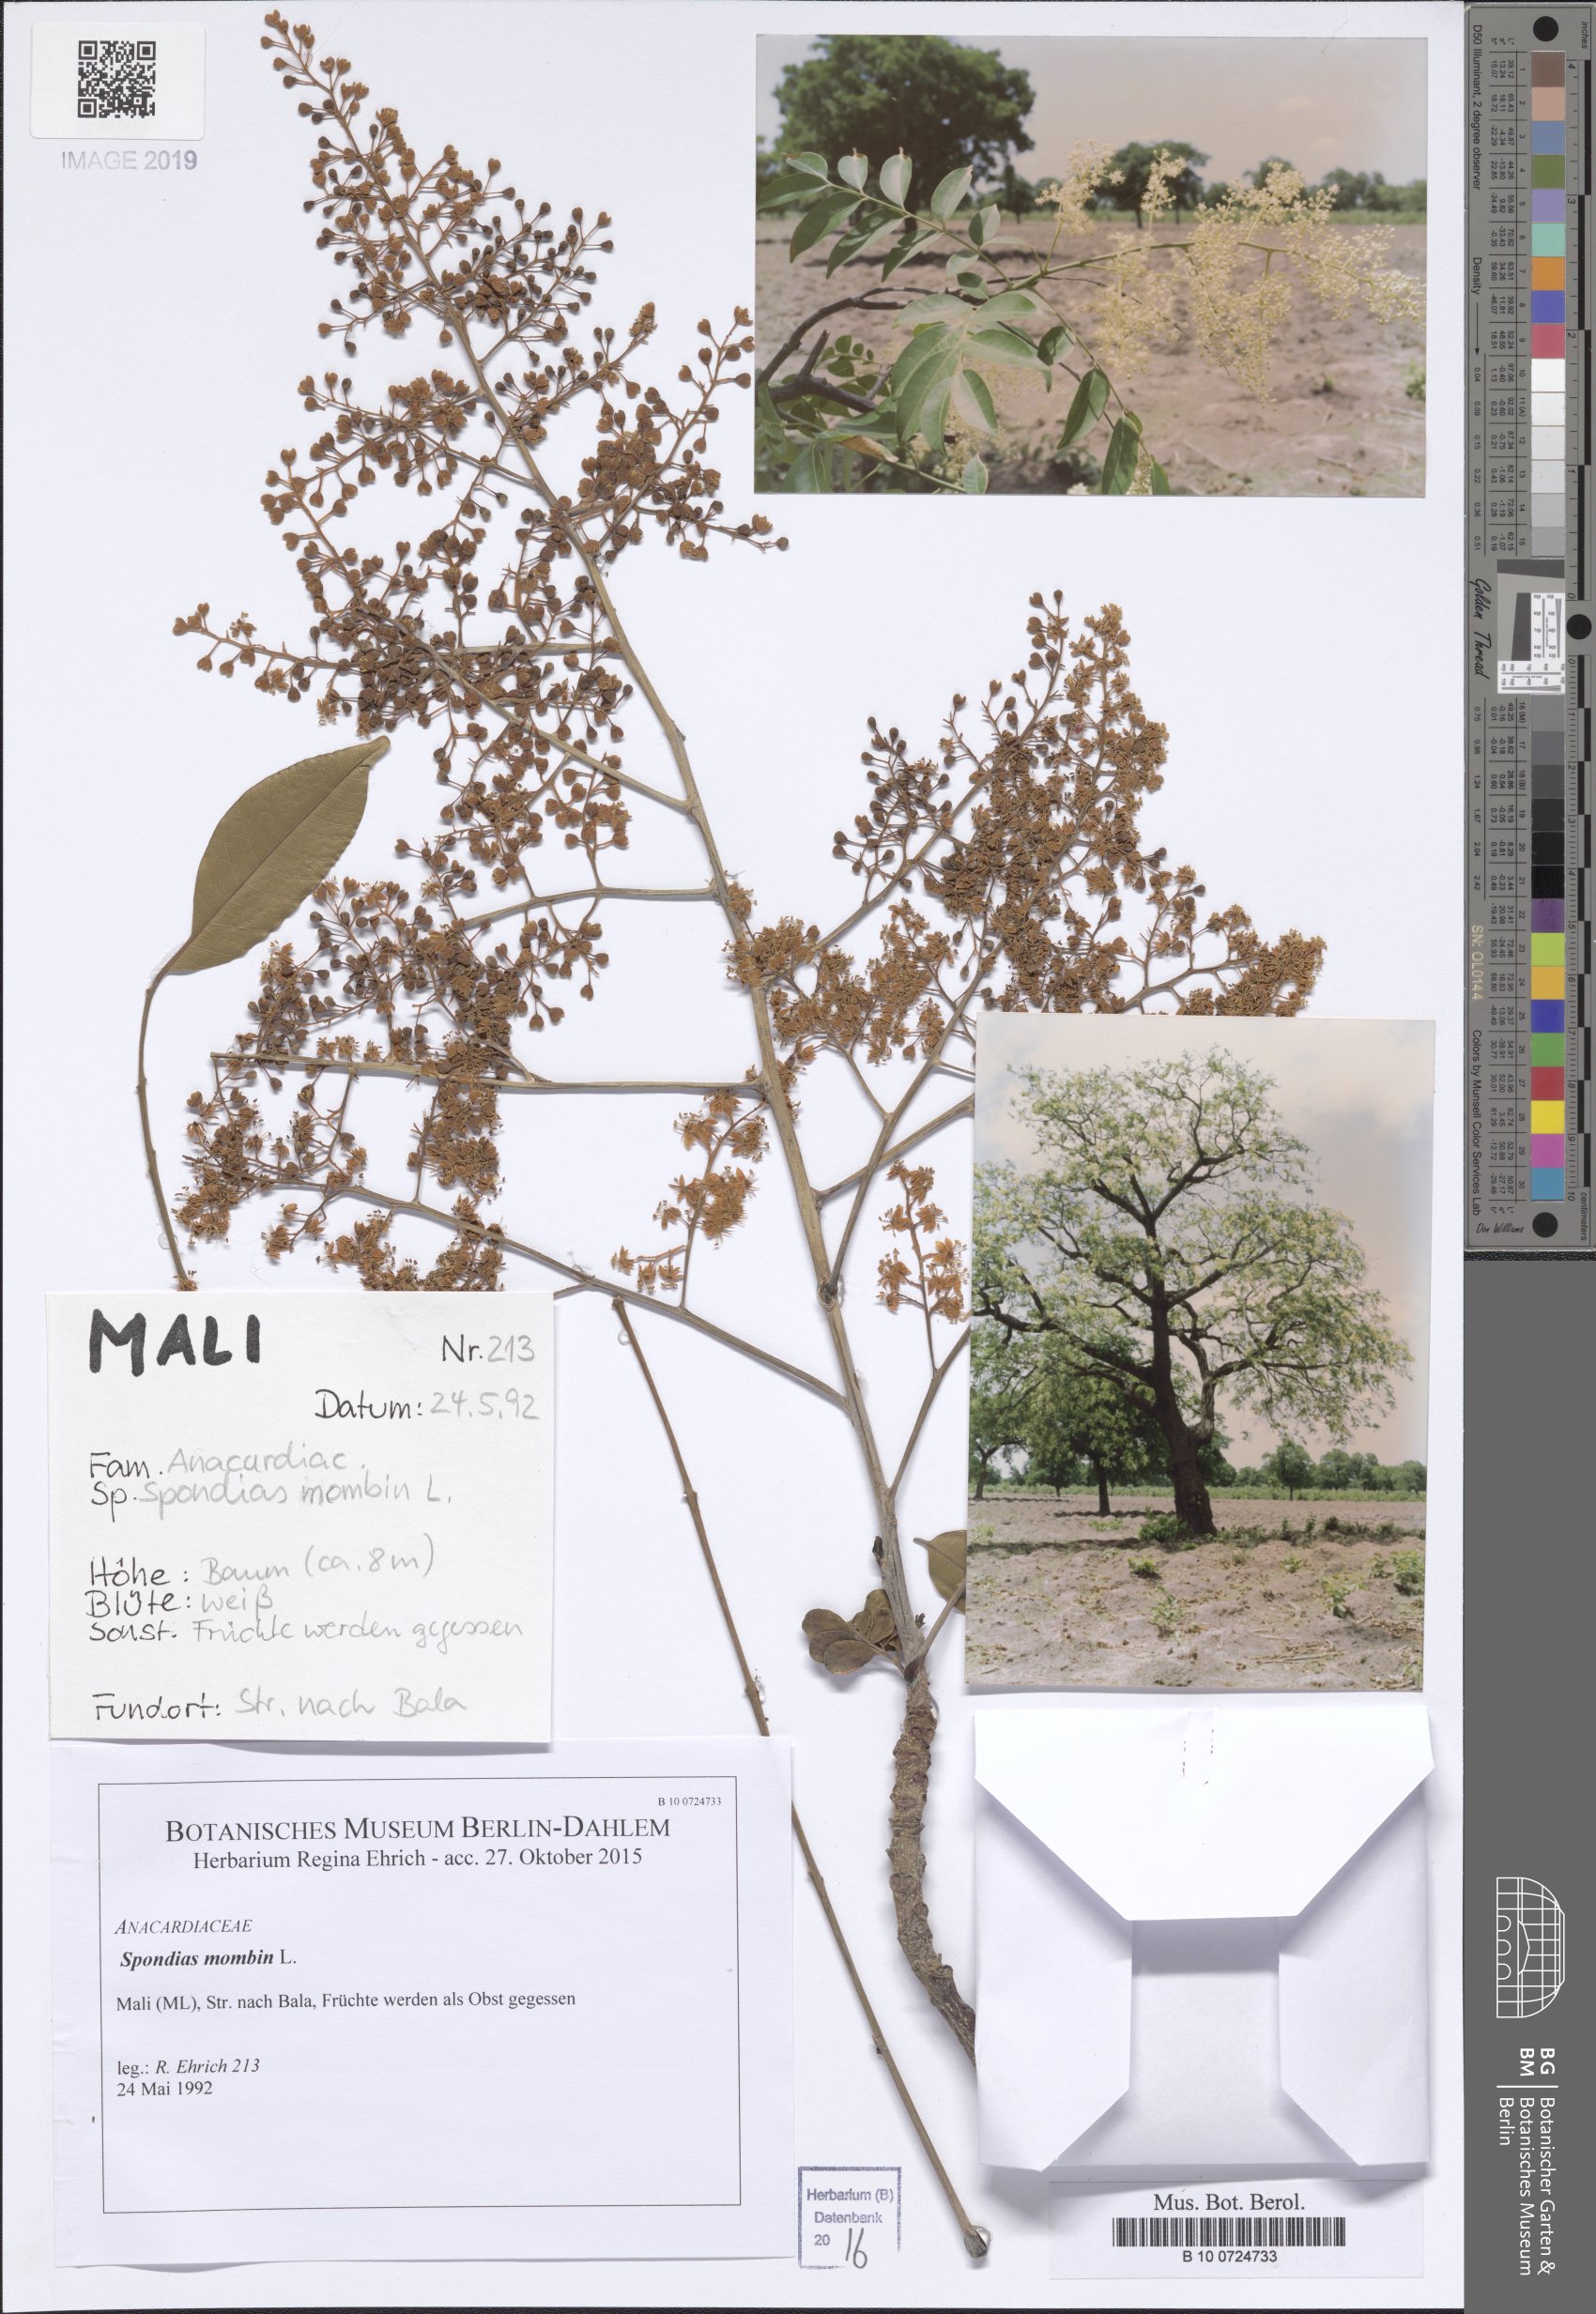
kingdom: Plantae
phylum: Tracheophyta
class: Magnoliopsida
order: Sapindales
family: Anacardiaceae
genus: Spondias
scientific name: Spondias mombin
